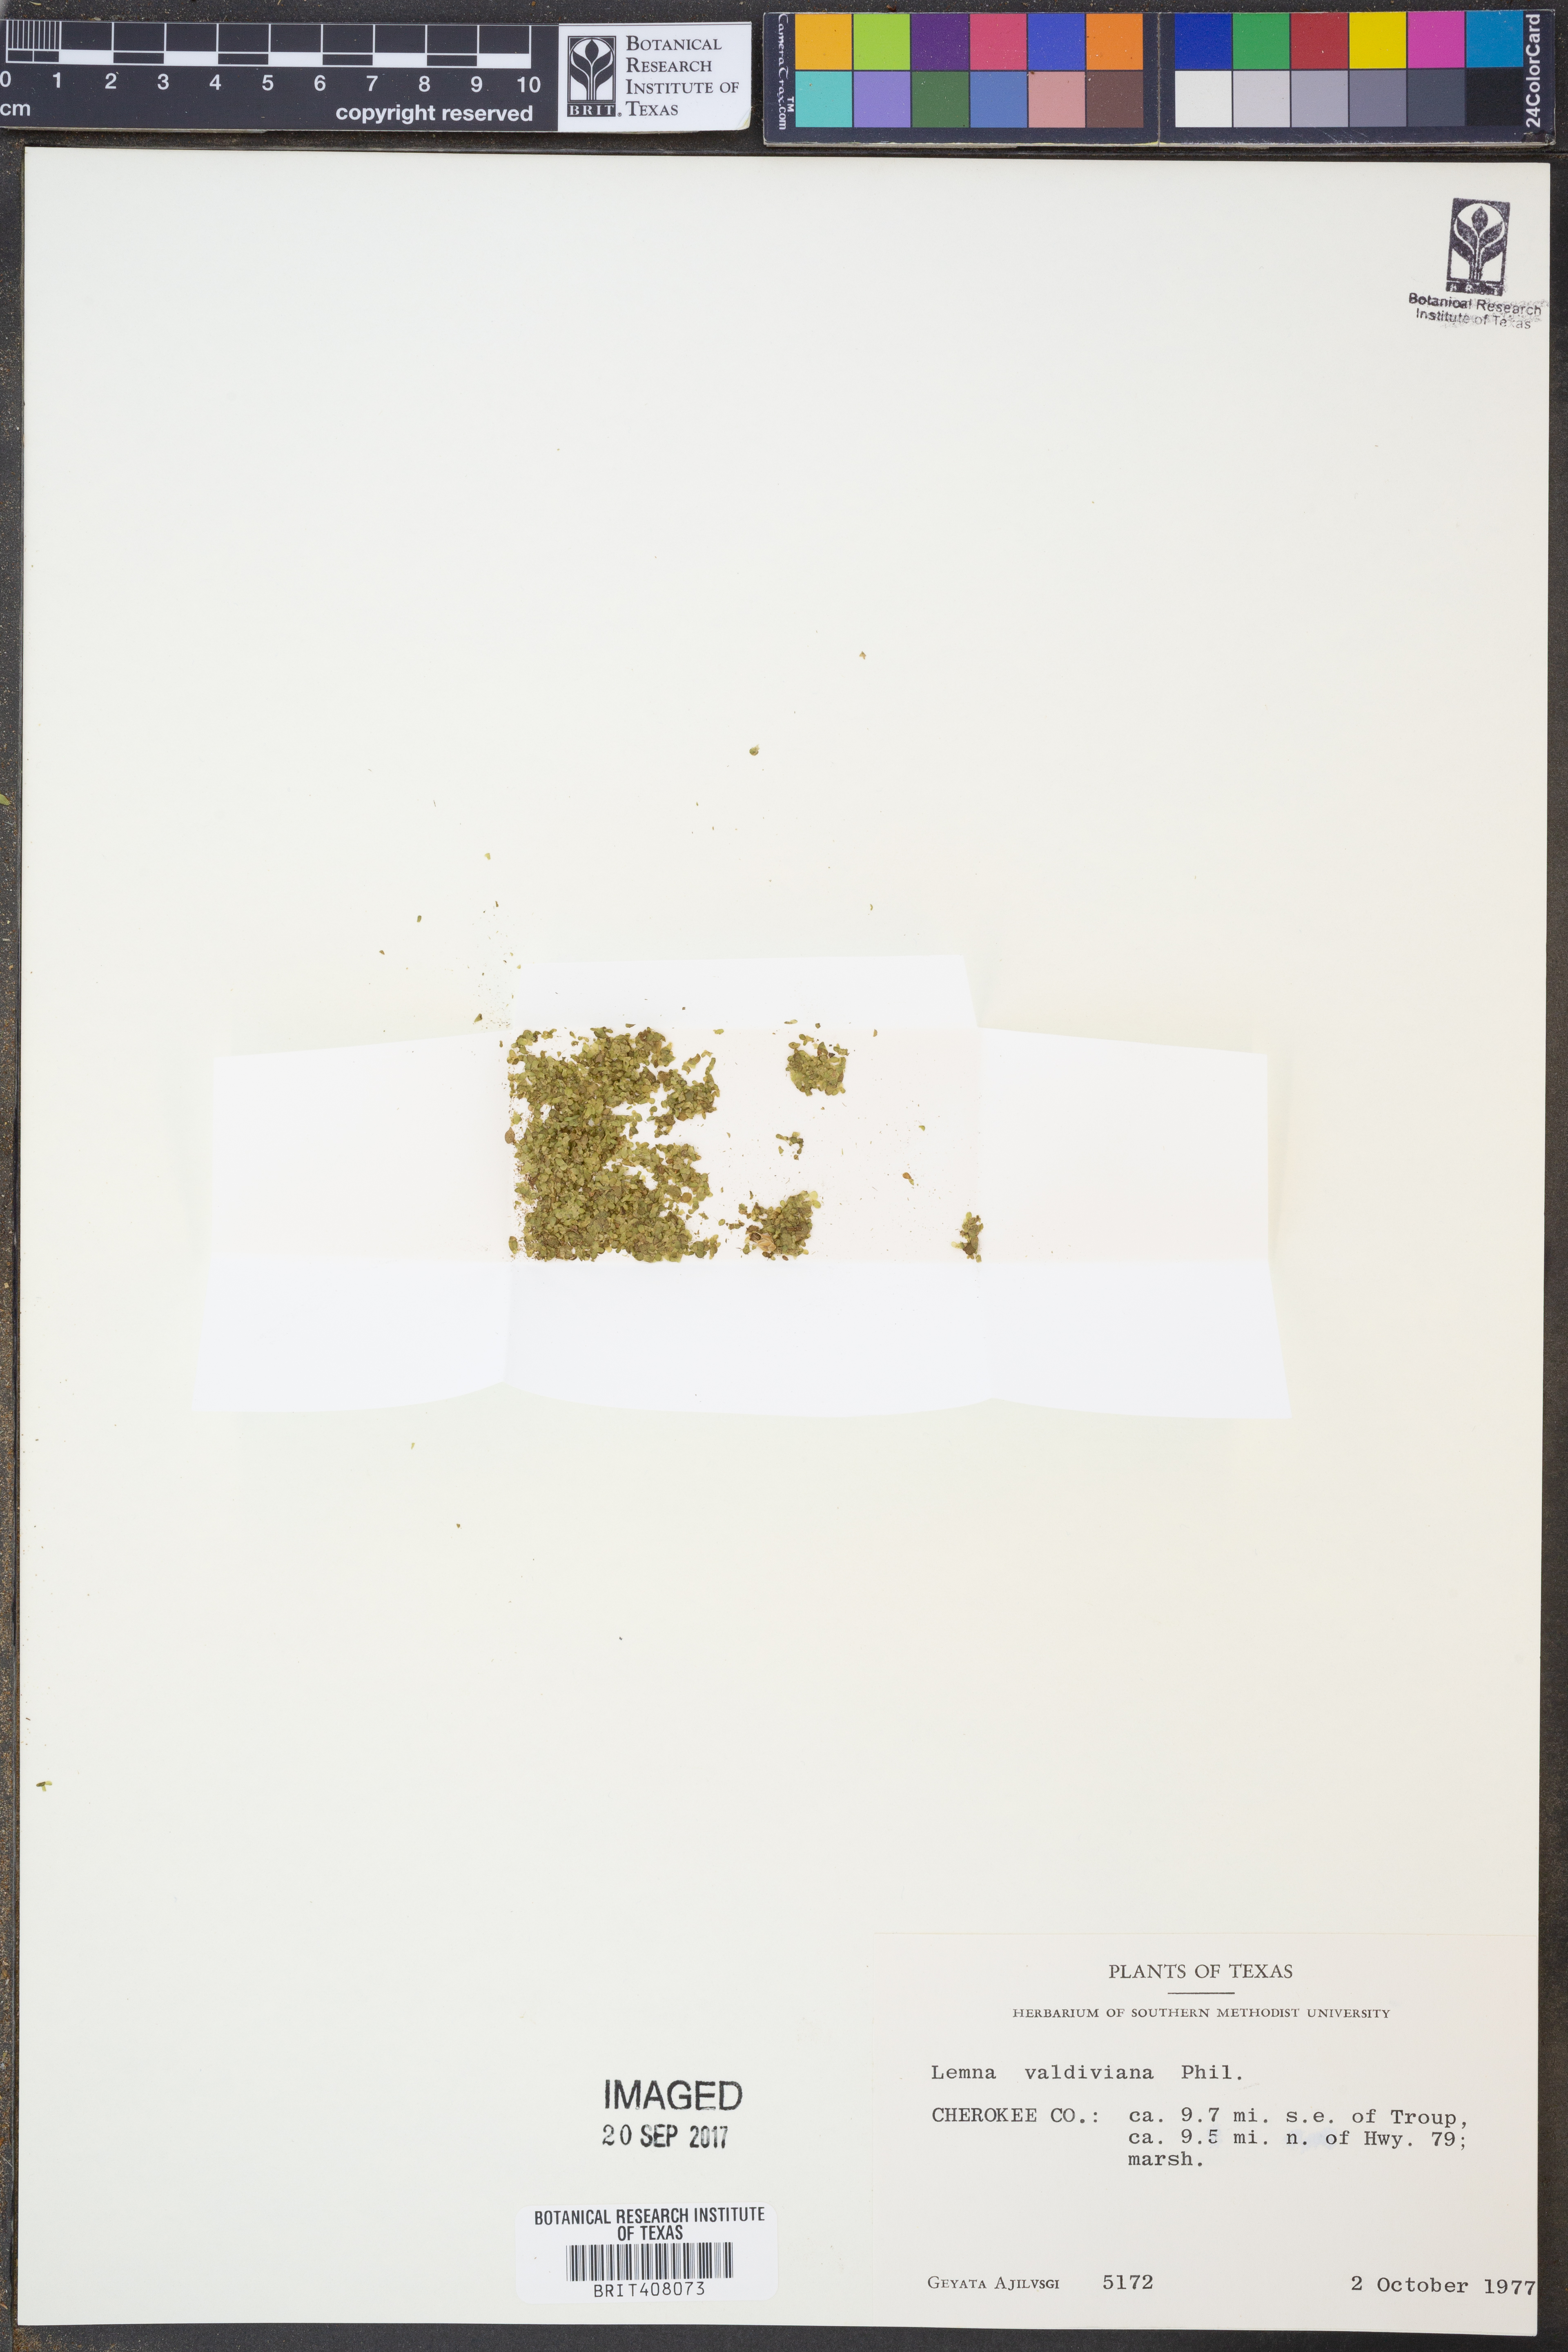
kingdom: Plantae
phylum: Tracheophyta
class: Liliopsida
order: Alismatales
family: Araceae
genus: Lemna
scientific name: Lemna valdiviana
